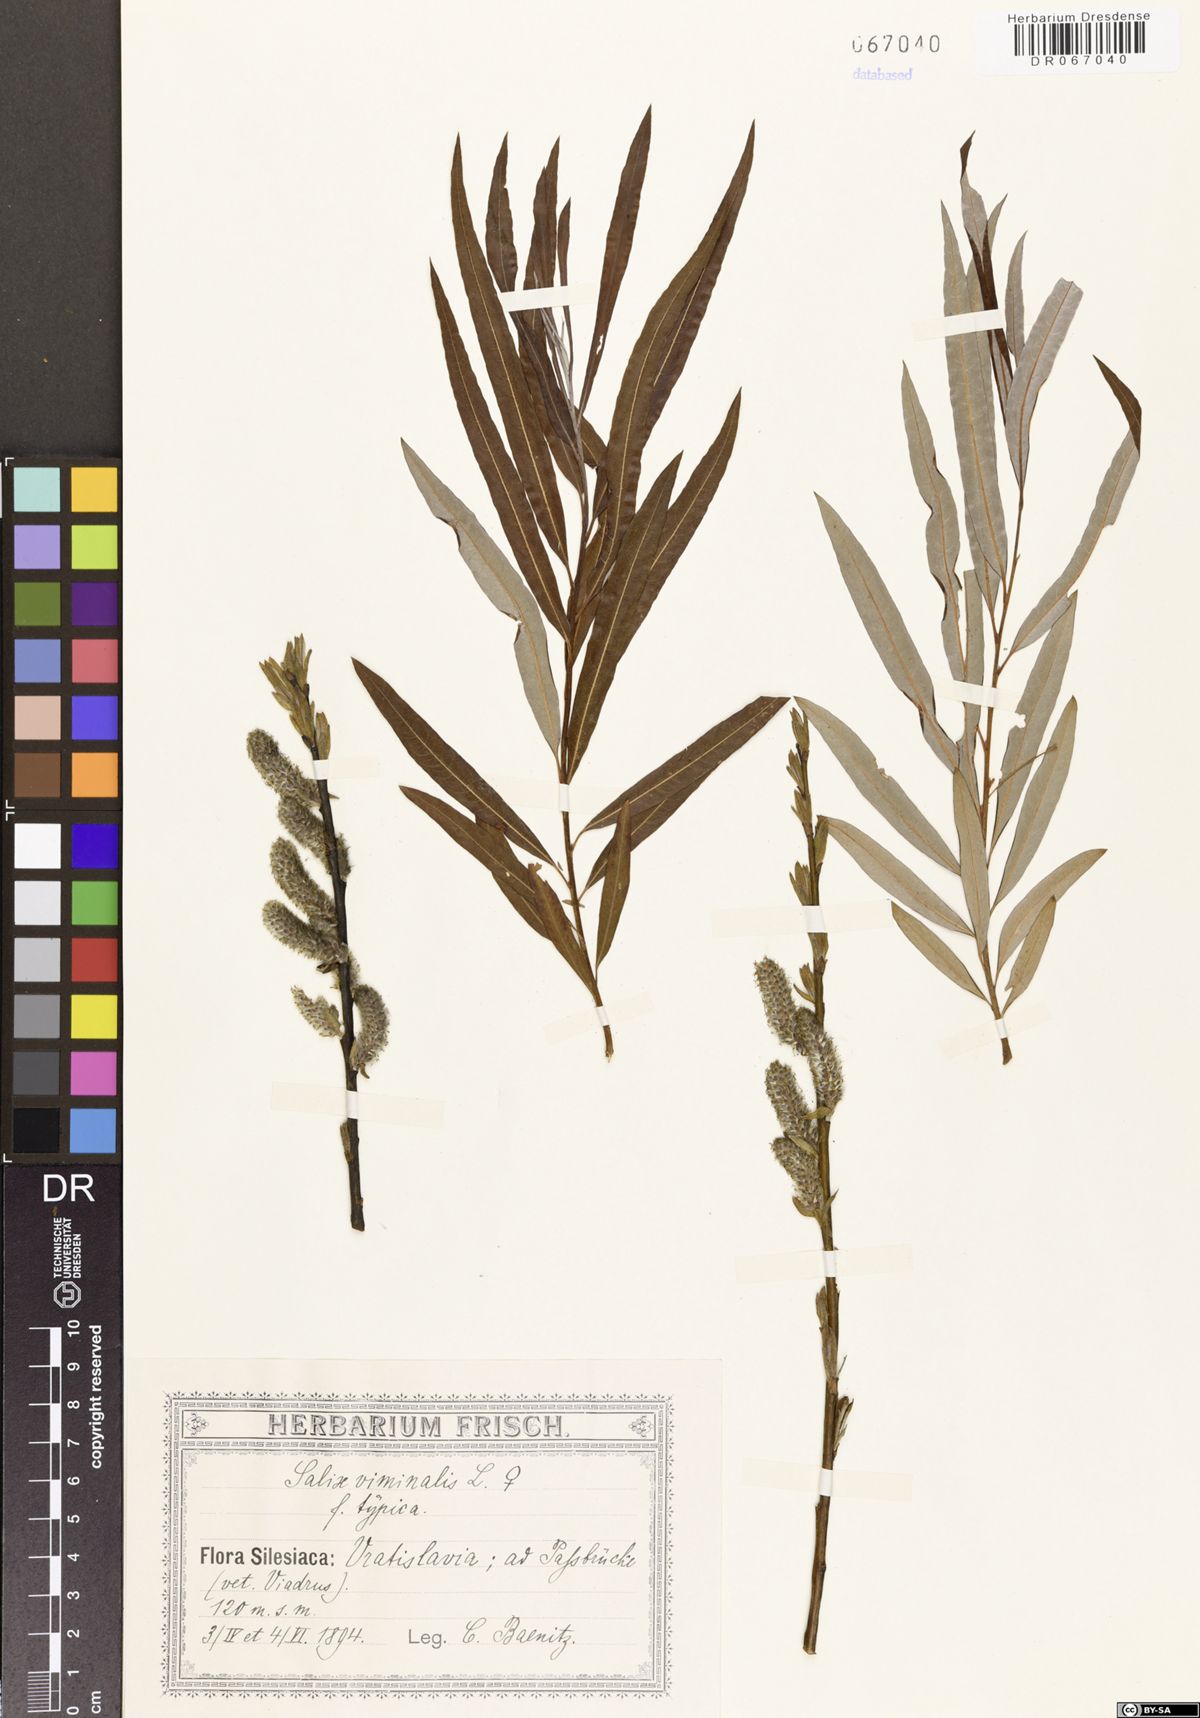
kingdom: Plantae
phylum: Tracheophyta
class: Magnoliopsida
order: Malpighiales
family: Salicaceae
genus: Salix
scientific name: Salix viminalis
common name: Osier
